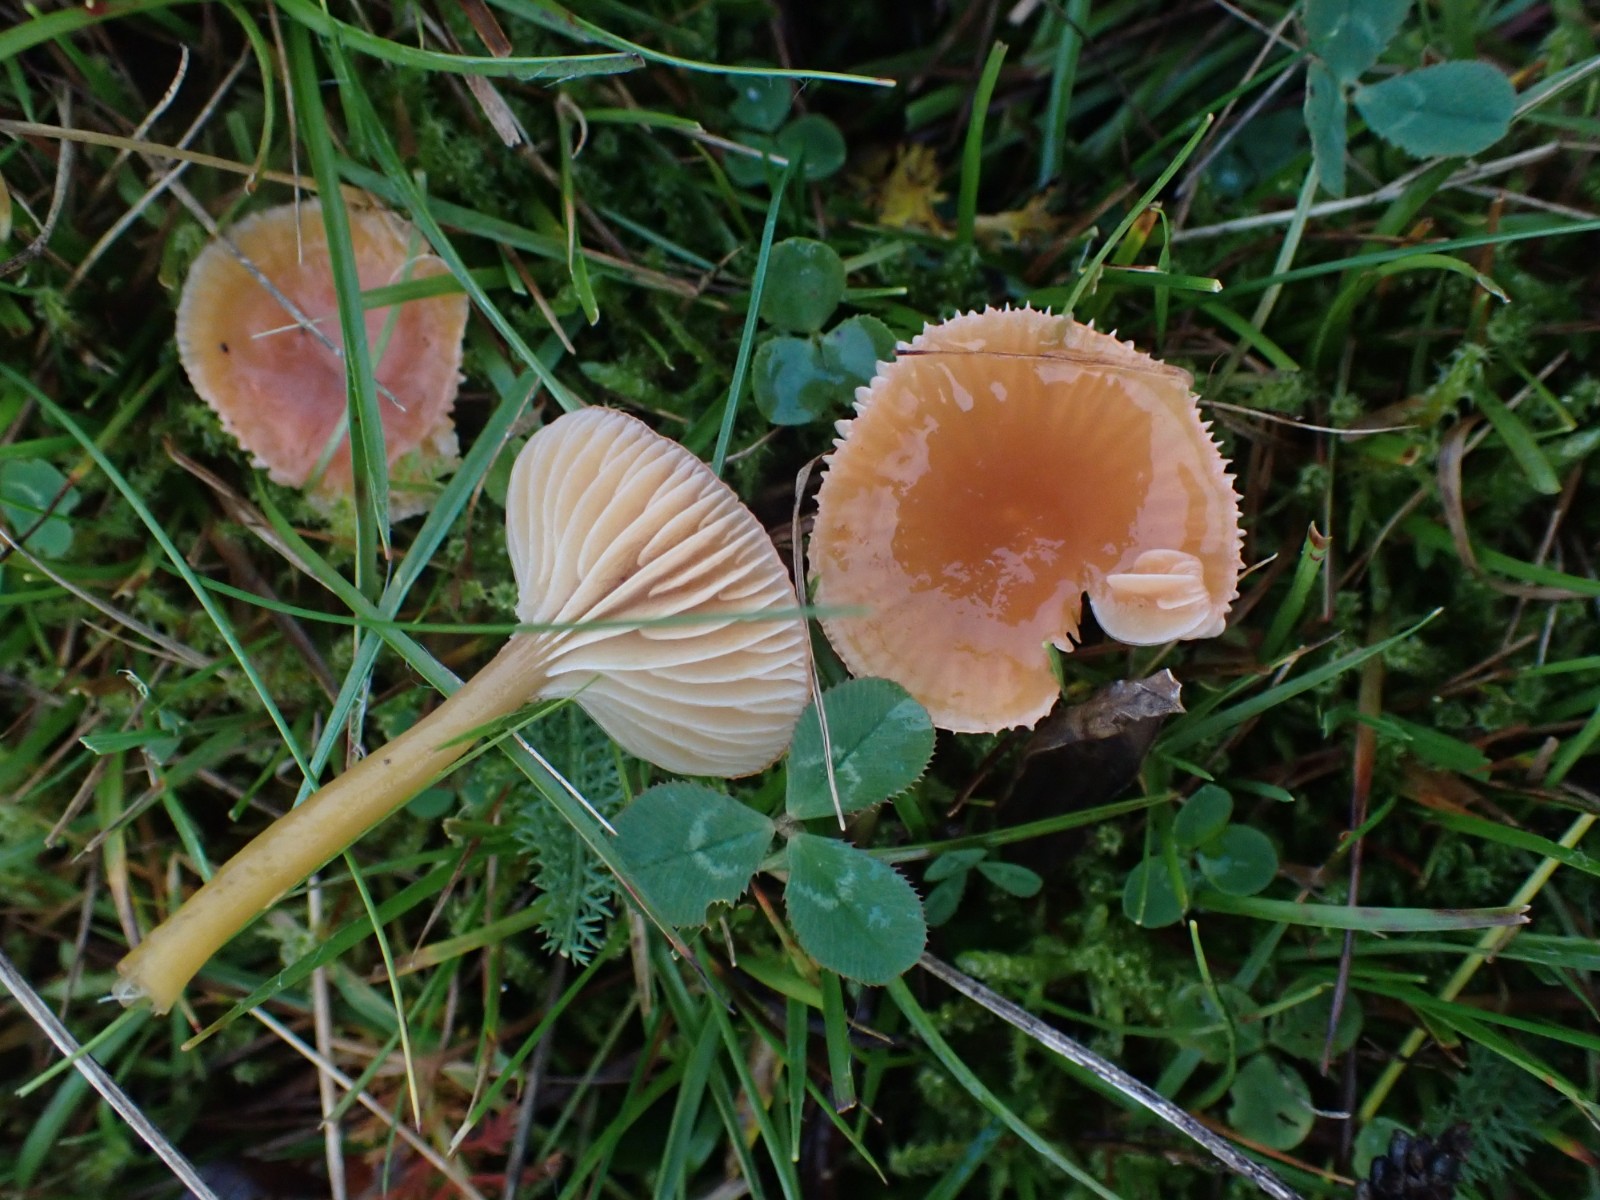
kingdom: Fungi
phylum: Basidiomycota
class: Agaricomycetes
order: Agaricales
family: Hygrophoraceae
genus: Gliophorus
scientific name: Gliophorus laetus
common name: brusk-vokshat
